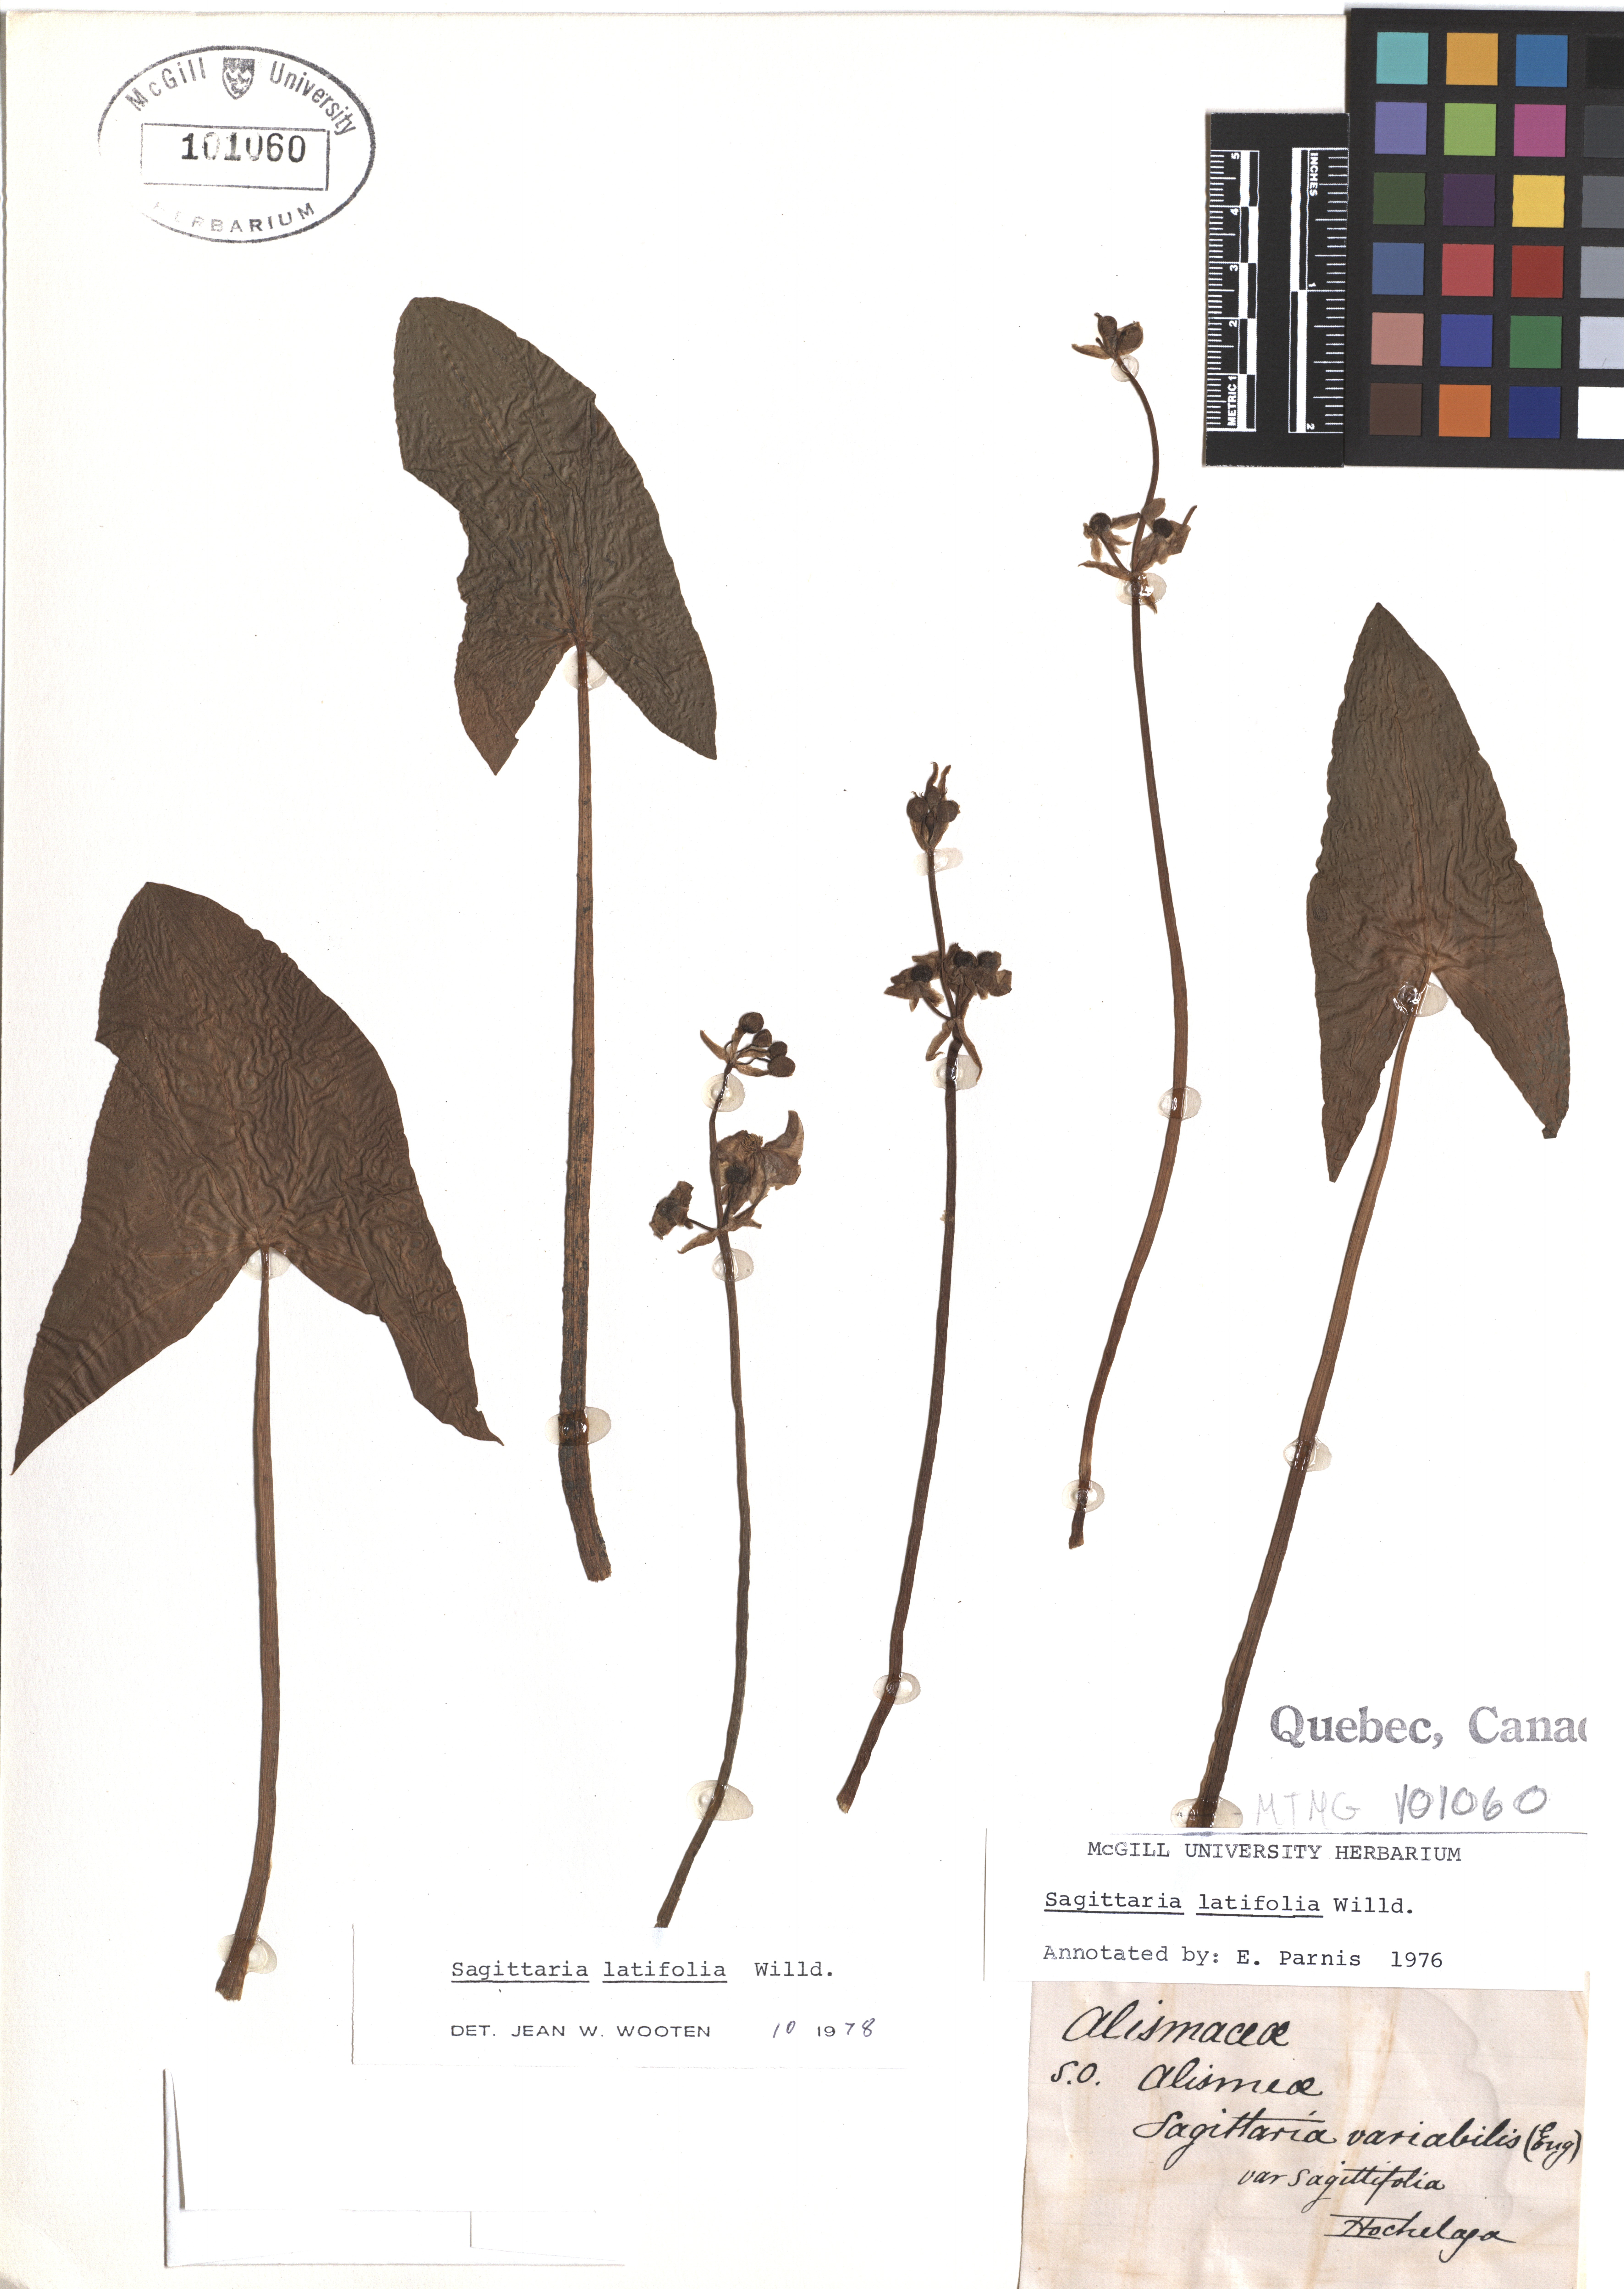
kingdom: Plantae
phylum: Tracheophyta
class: Liliopsida
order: Alismatales
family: Alismataceae
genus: Sagittaria
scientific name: Sagittaria latifolia
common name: Duck-potato
